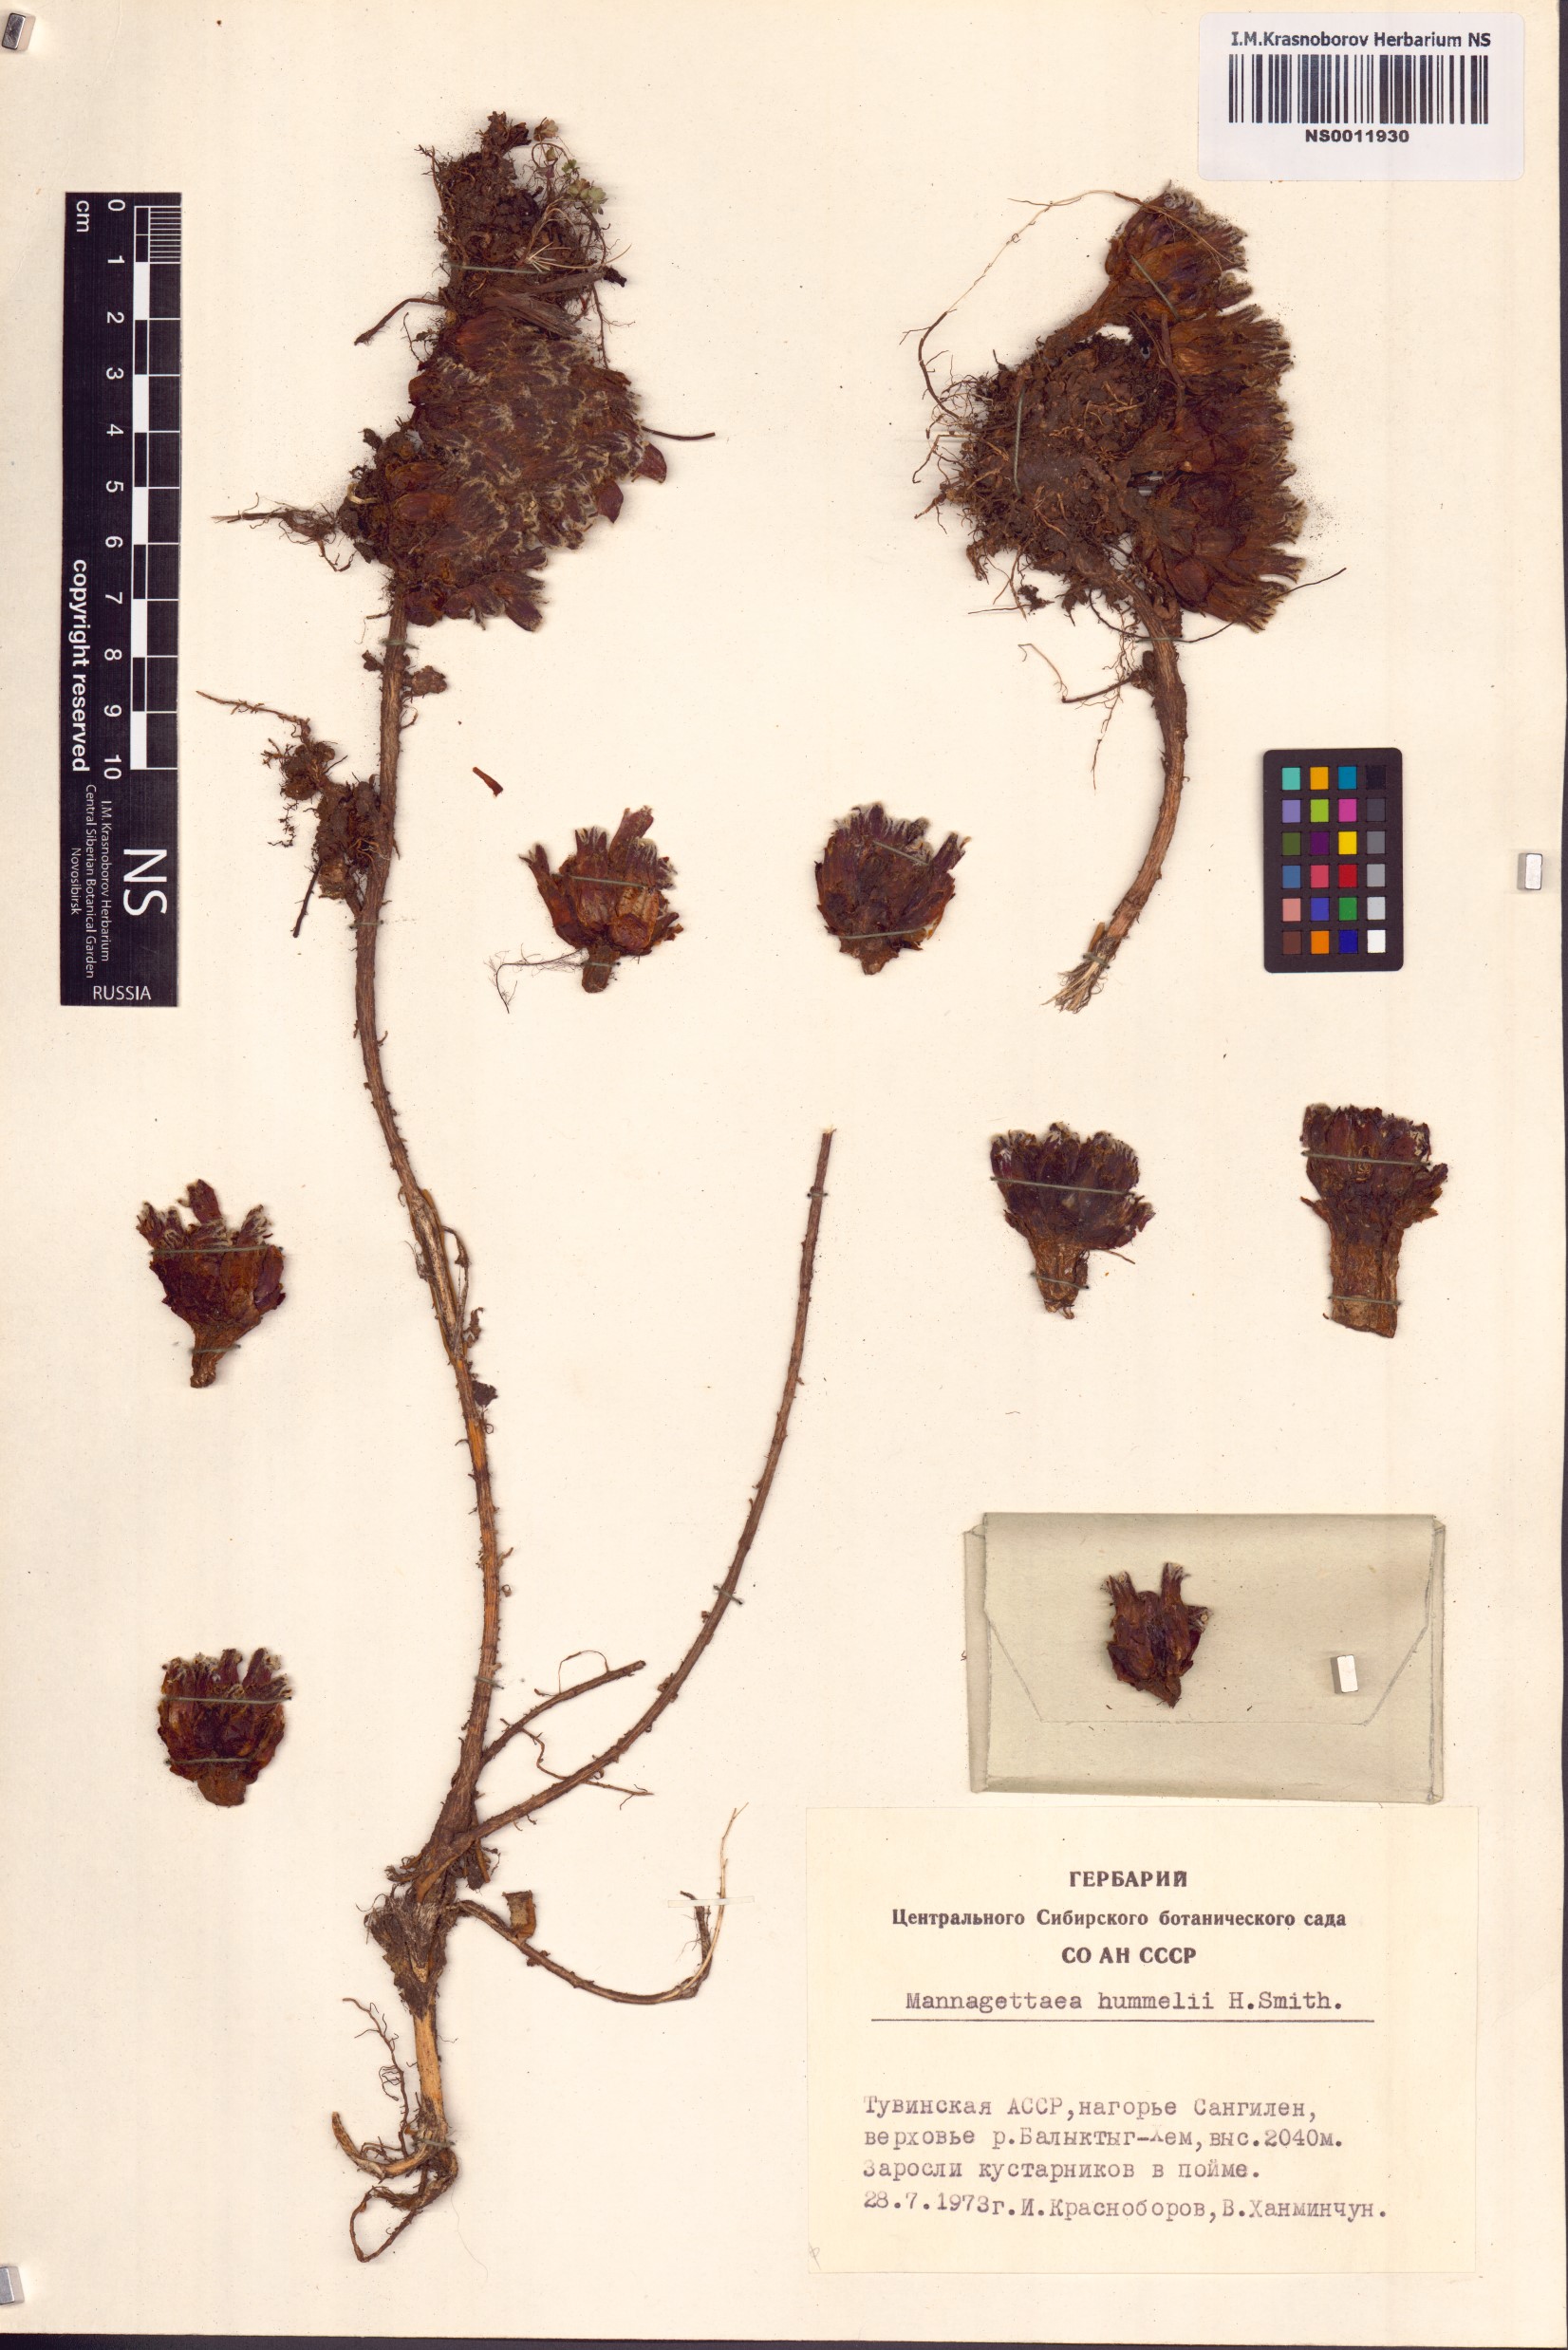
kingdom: Plantae
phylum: Tracheophyta
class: Magnoliopsida
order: Lamiales
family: Orobanchaceae
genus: Mannagettaea
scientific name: Mannagettaea hummelii
